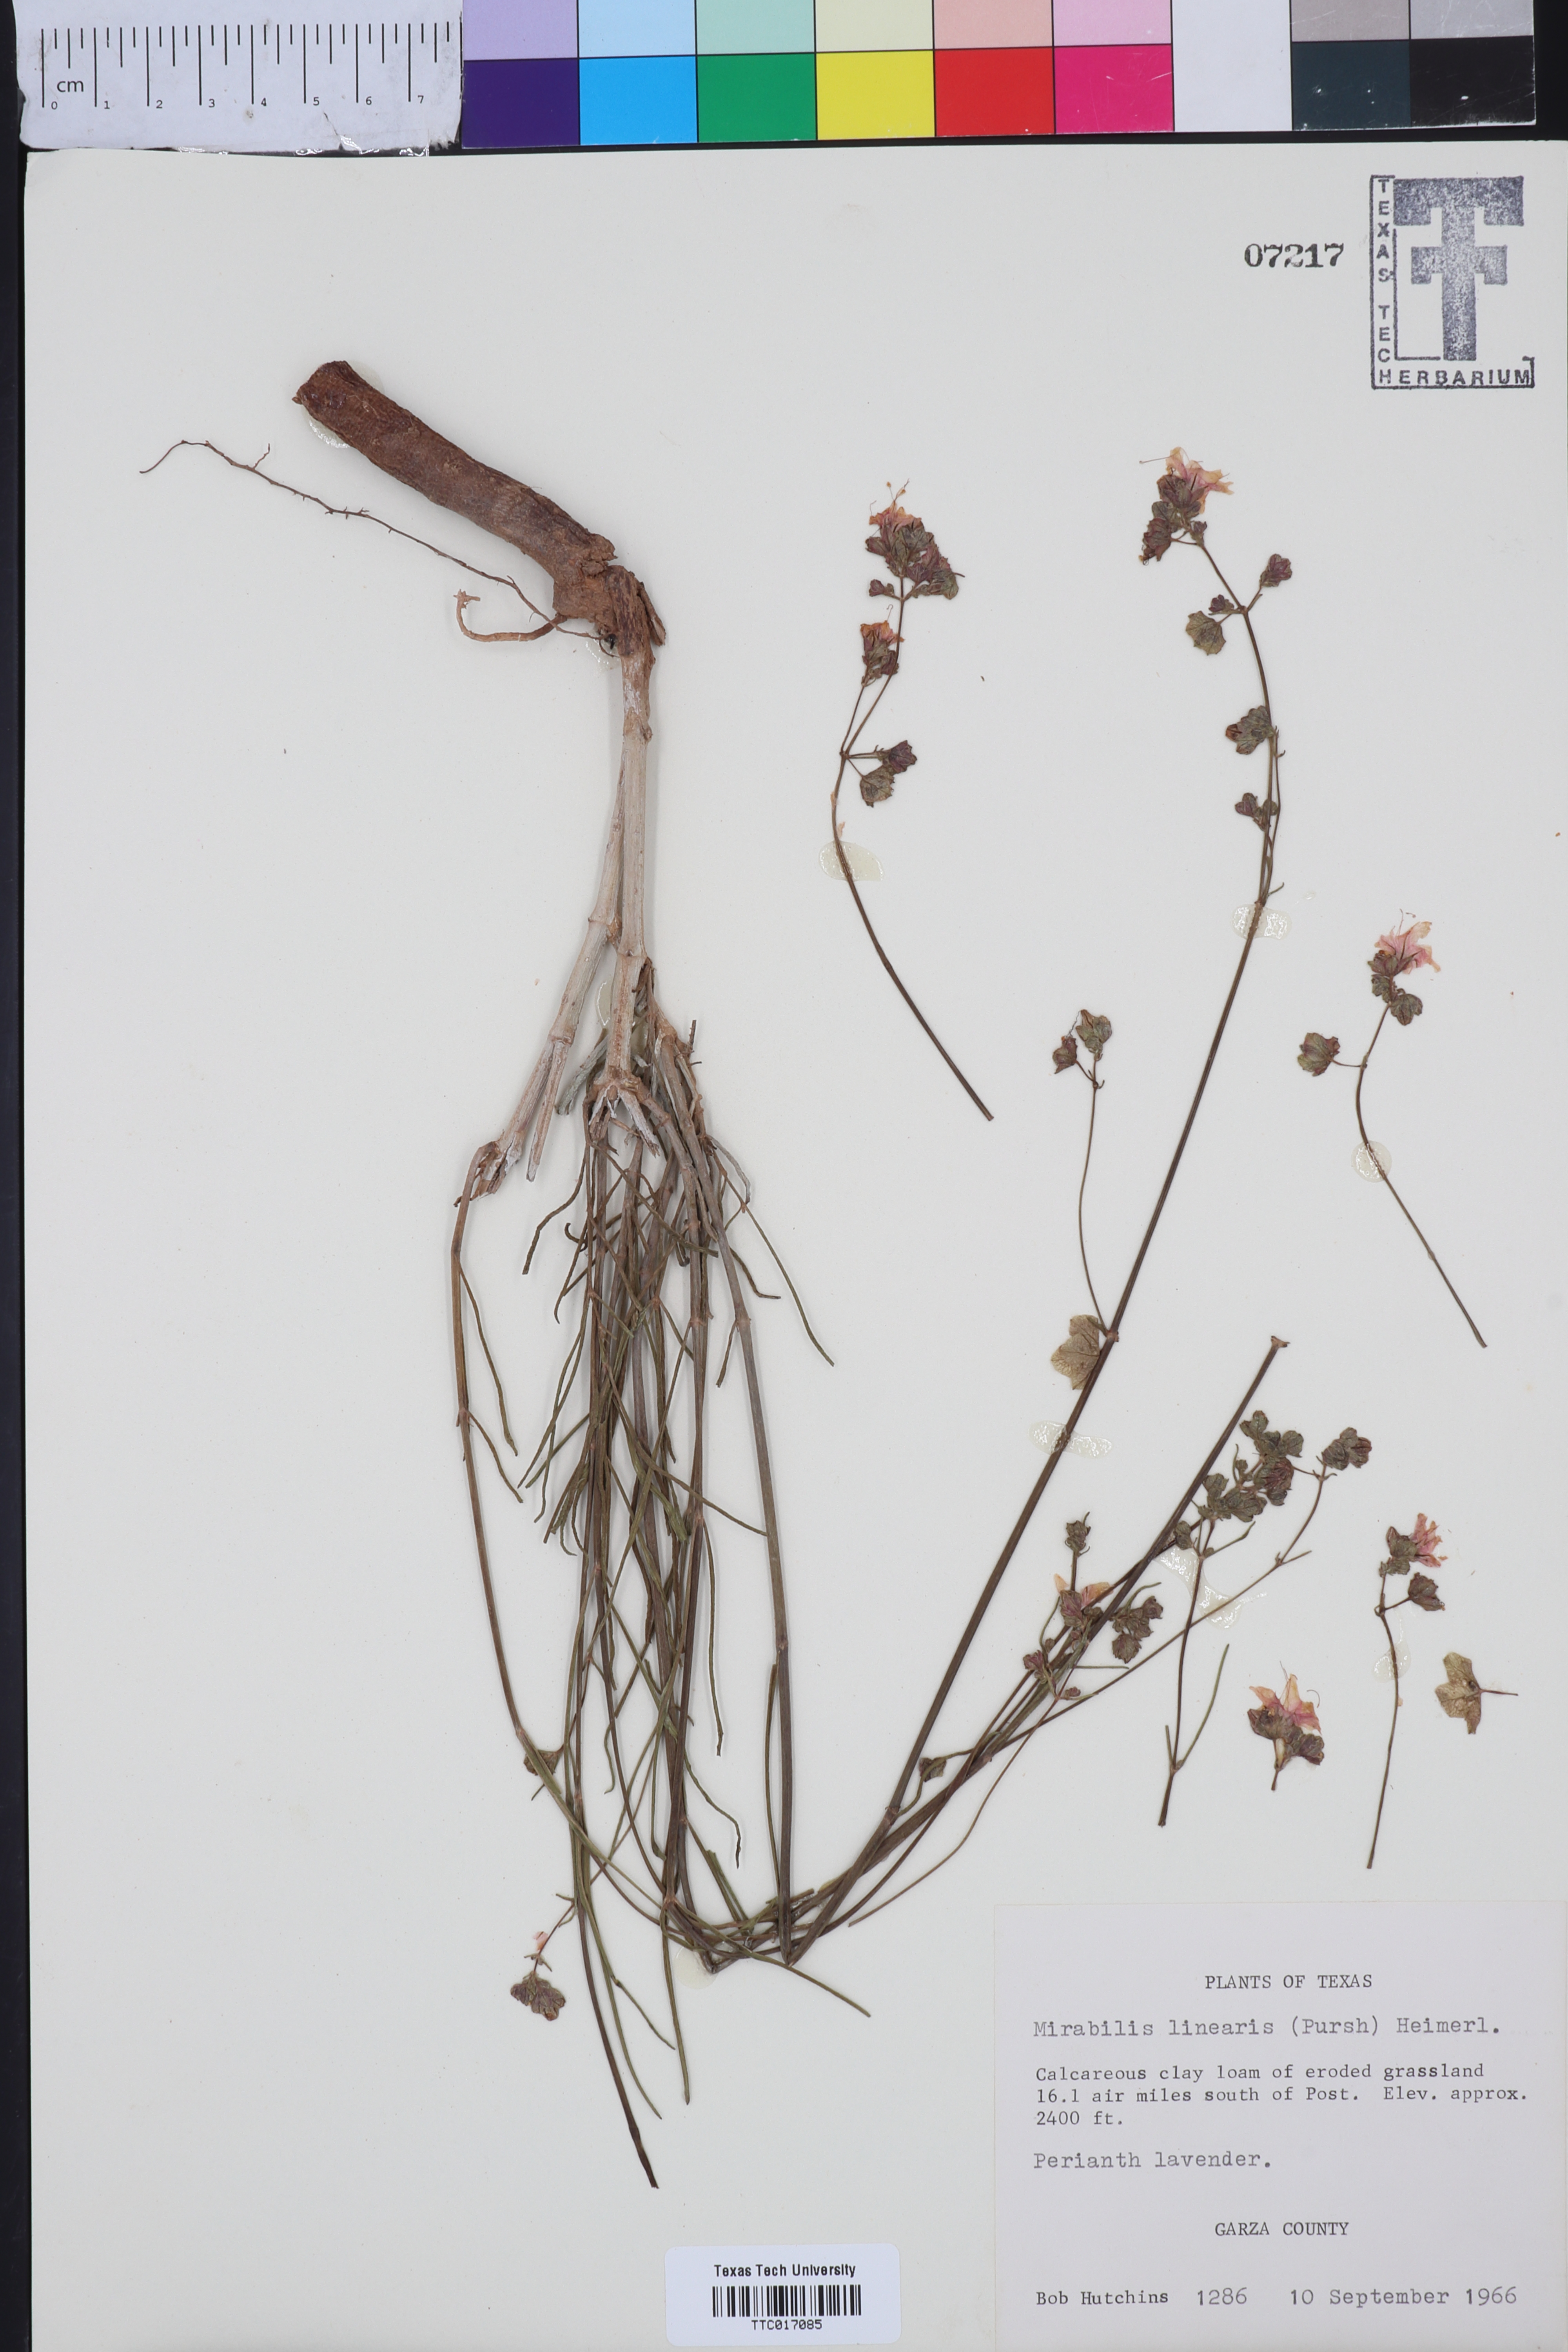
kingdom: Plantae
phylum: Tracheophyta
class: Magnoliopsida
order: Caryophyllales
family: Nyctaginaceae
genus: Mirabilis
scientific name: Mirabilis linearis
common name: Linear-leaved four-o'clock
